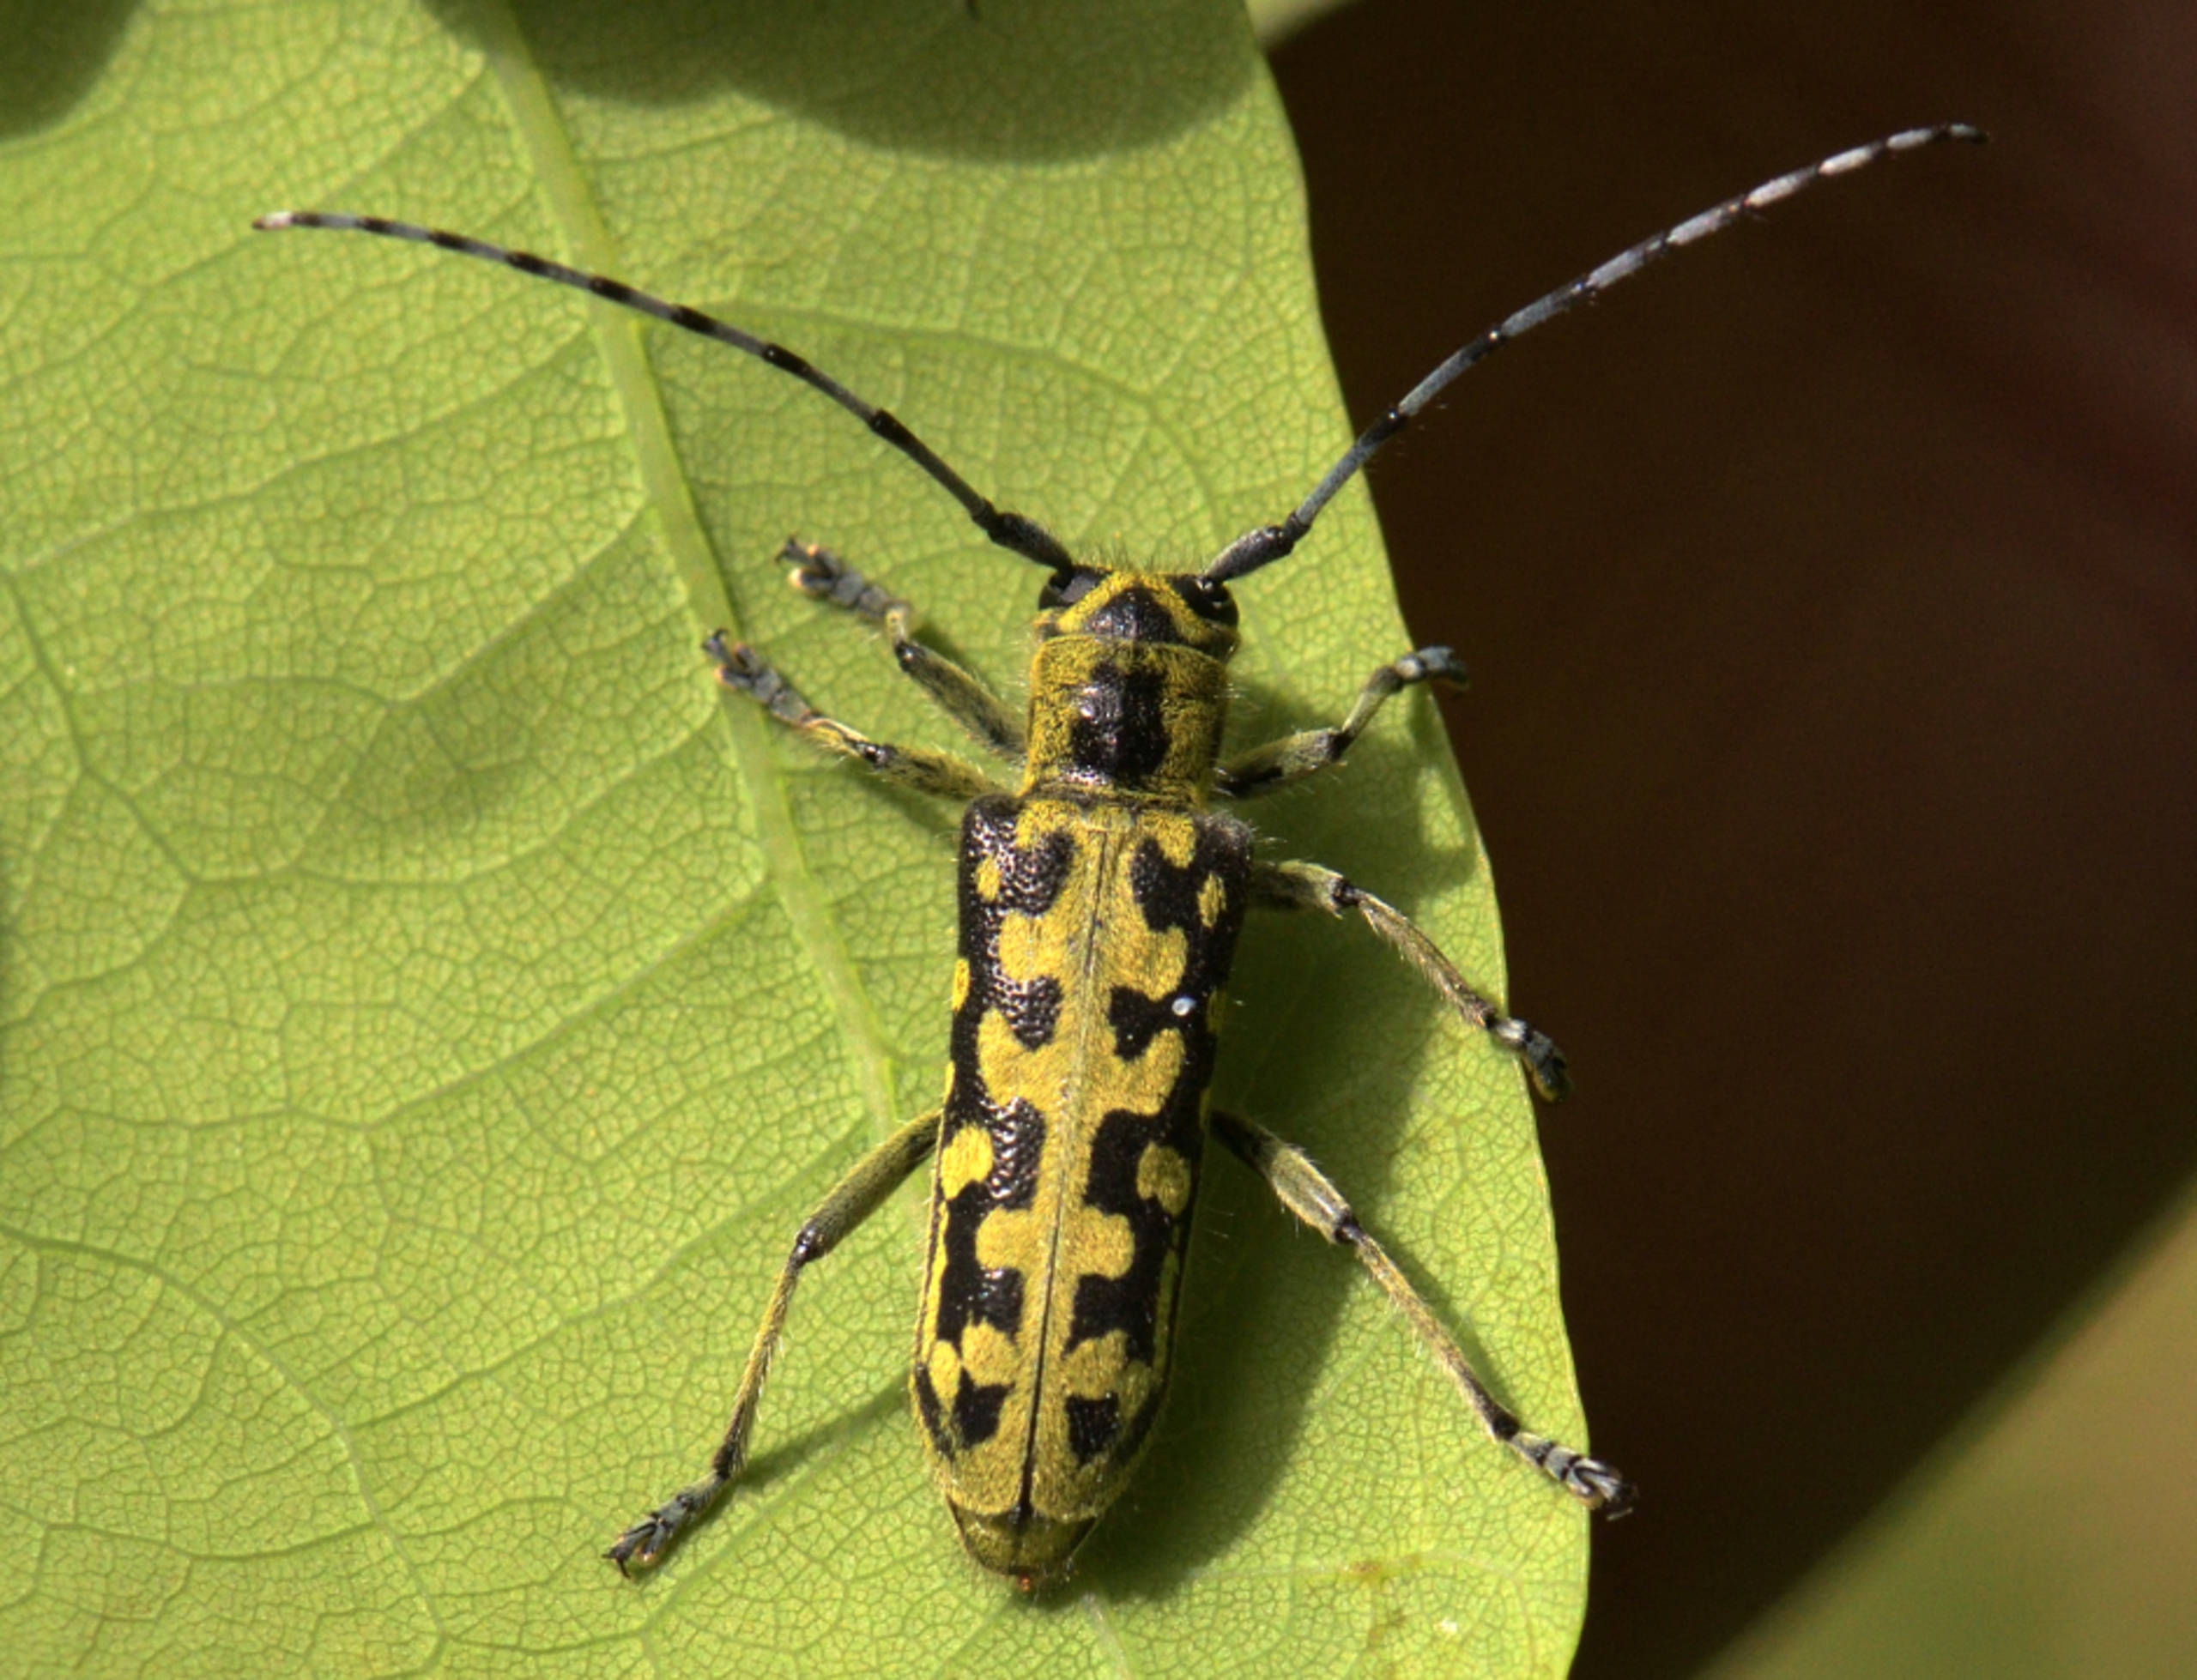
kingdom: Animalia
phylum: Arthropoda
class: Insecta
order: Coleoptera
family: Cerambycidae
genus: Saperda
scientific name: Saperda scalaris
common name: Stigebuk
